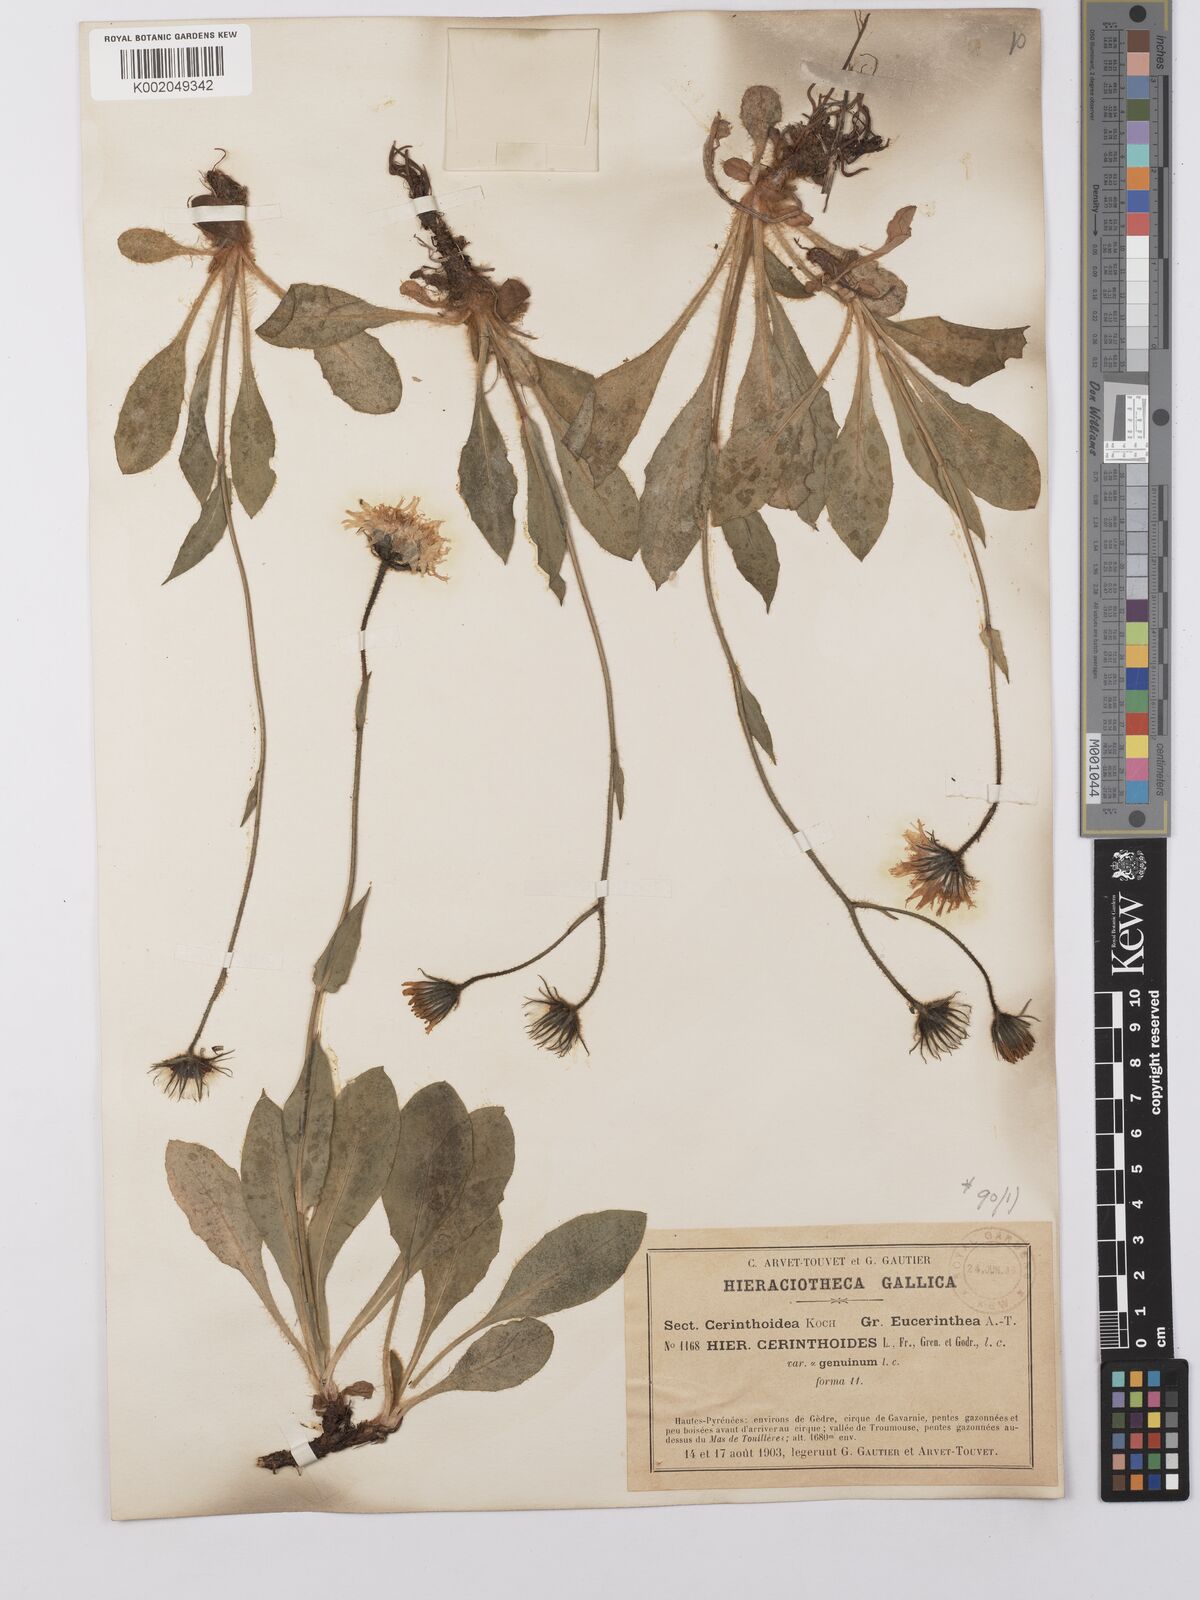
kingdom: Plantae
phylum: Tracheophyta
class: Magnoliopsida
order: Asterales
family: Asteraceae
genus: Hieracium
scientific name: Hieracium cerinthoides
